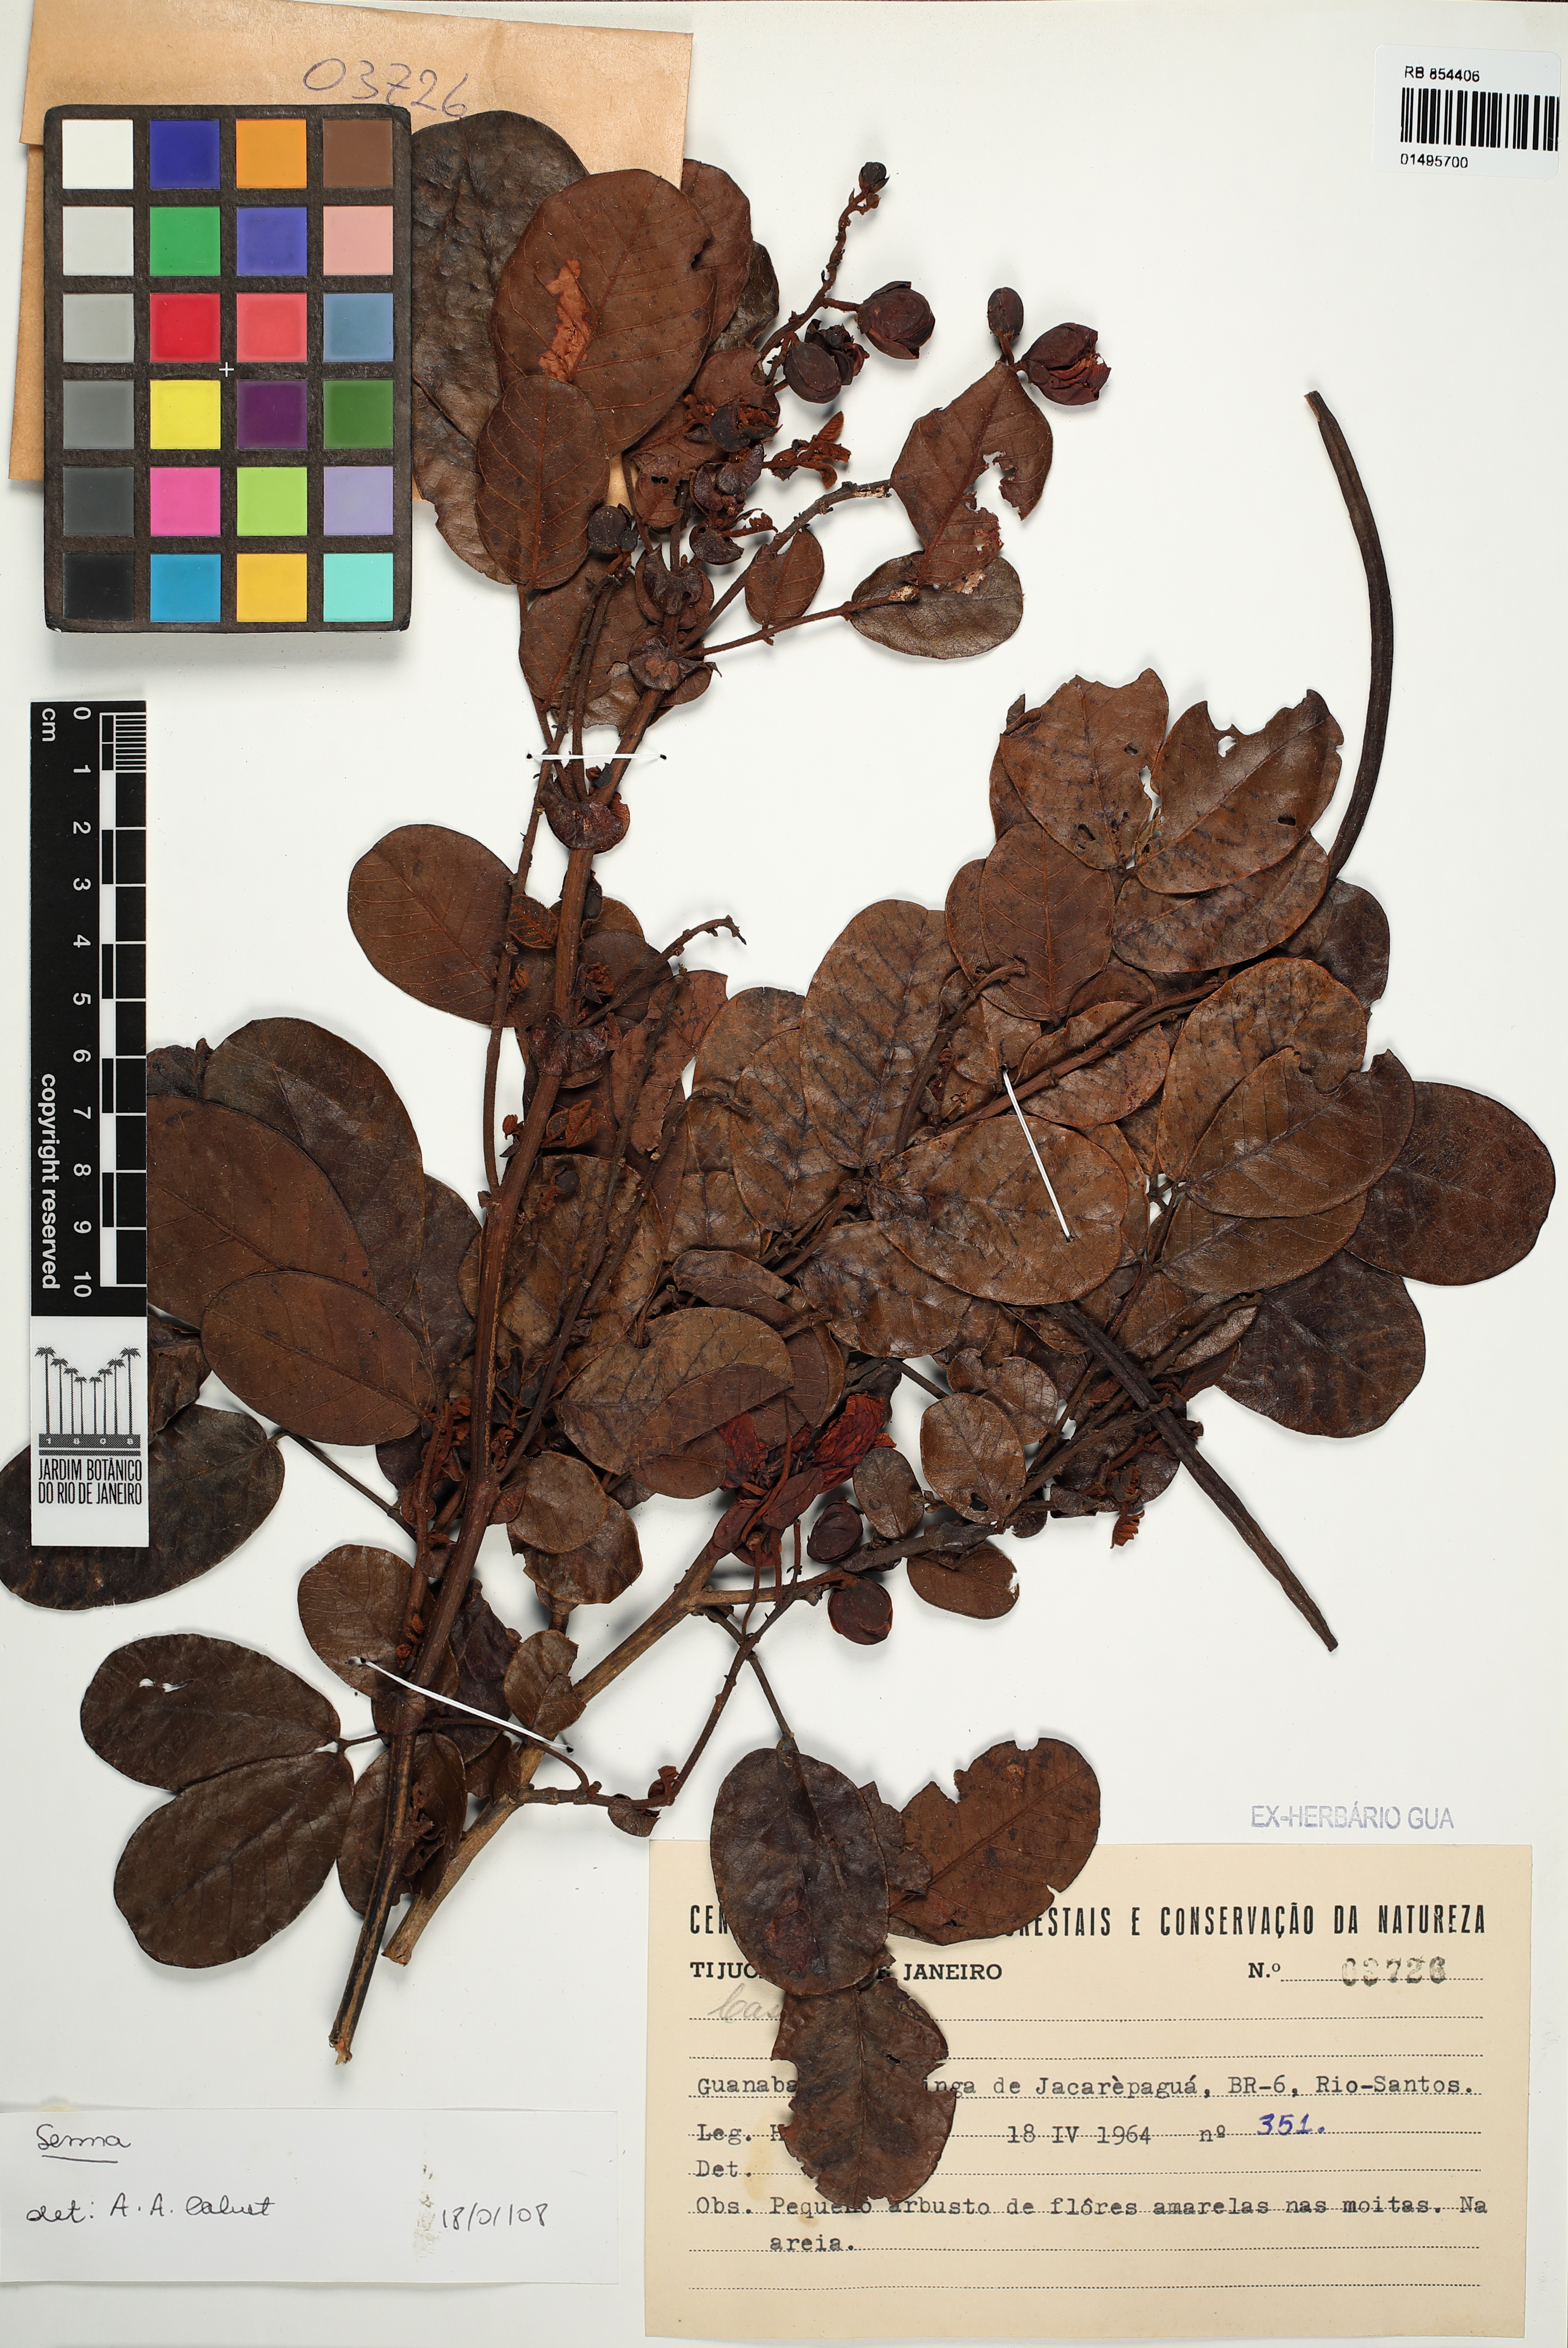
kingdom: Plantae
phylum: Tracheophyta
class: Magnoliopsida
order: Fabales
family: Fabaceae
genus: Senna
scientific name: Senna
